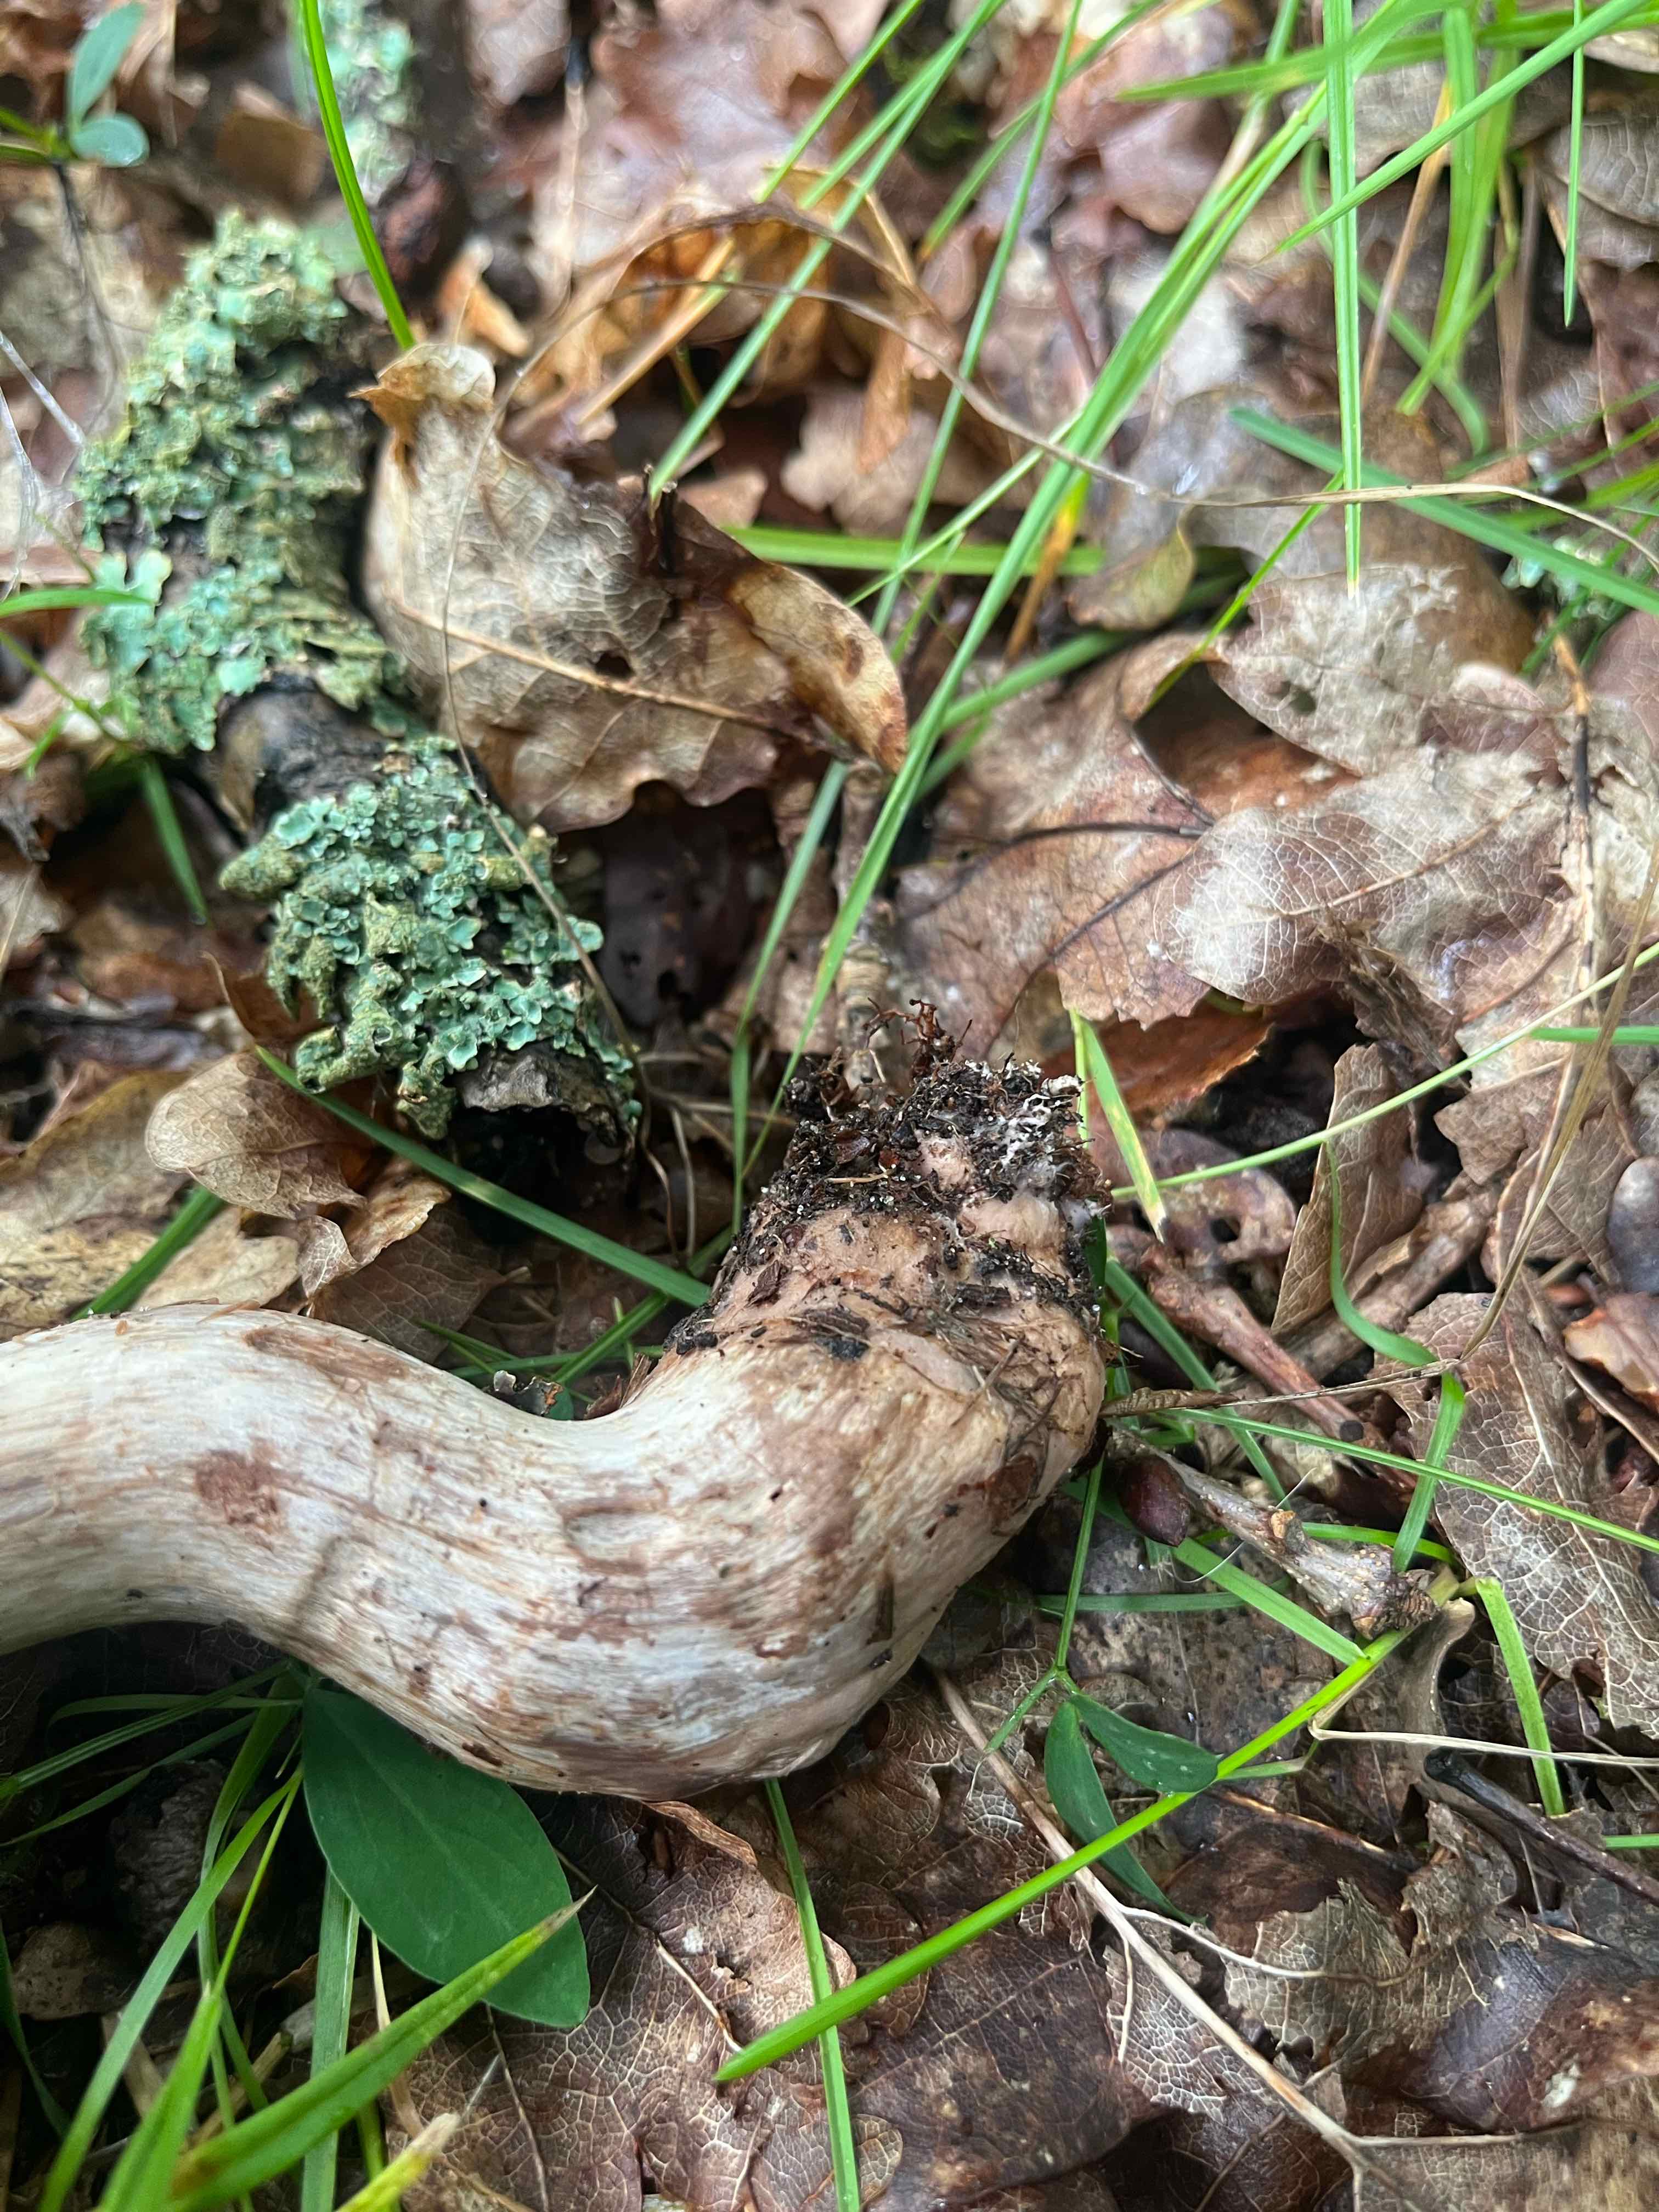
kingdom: Fungi
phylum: Basidiomycota
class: Agaricomycetes
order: Agaricales
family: Cortinariaceae
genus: Cortinarius
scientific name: Cortinarius
